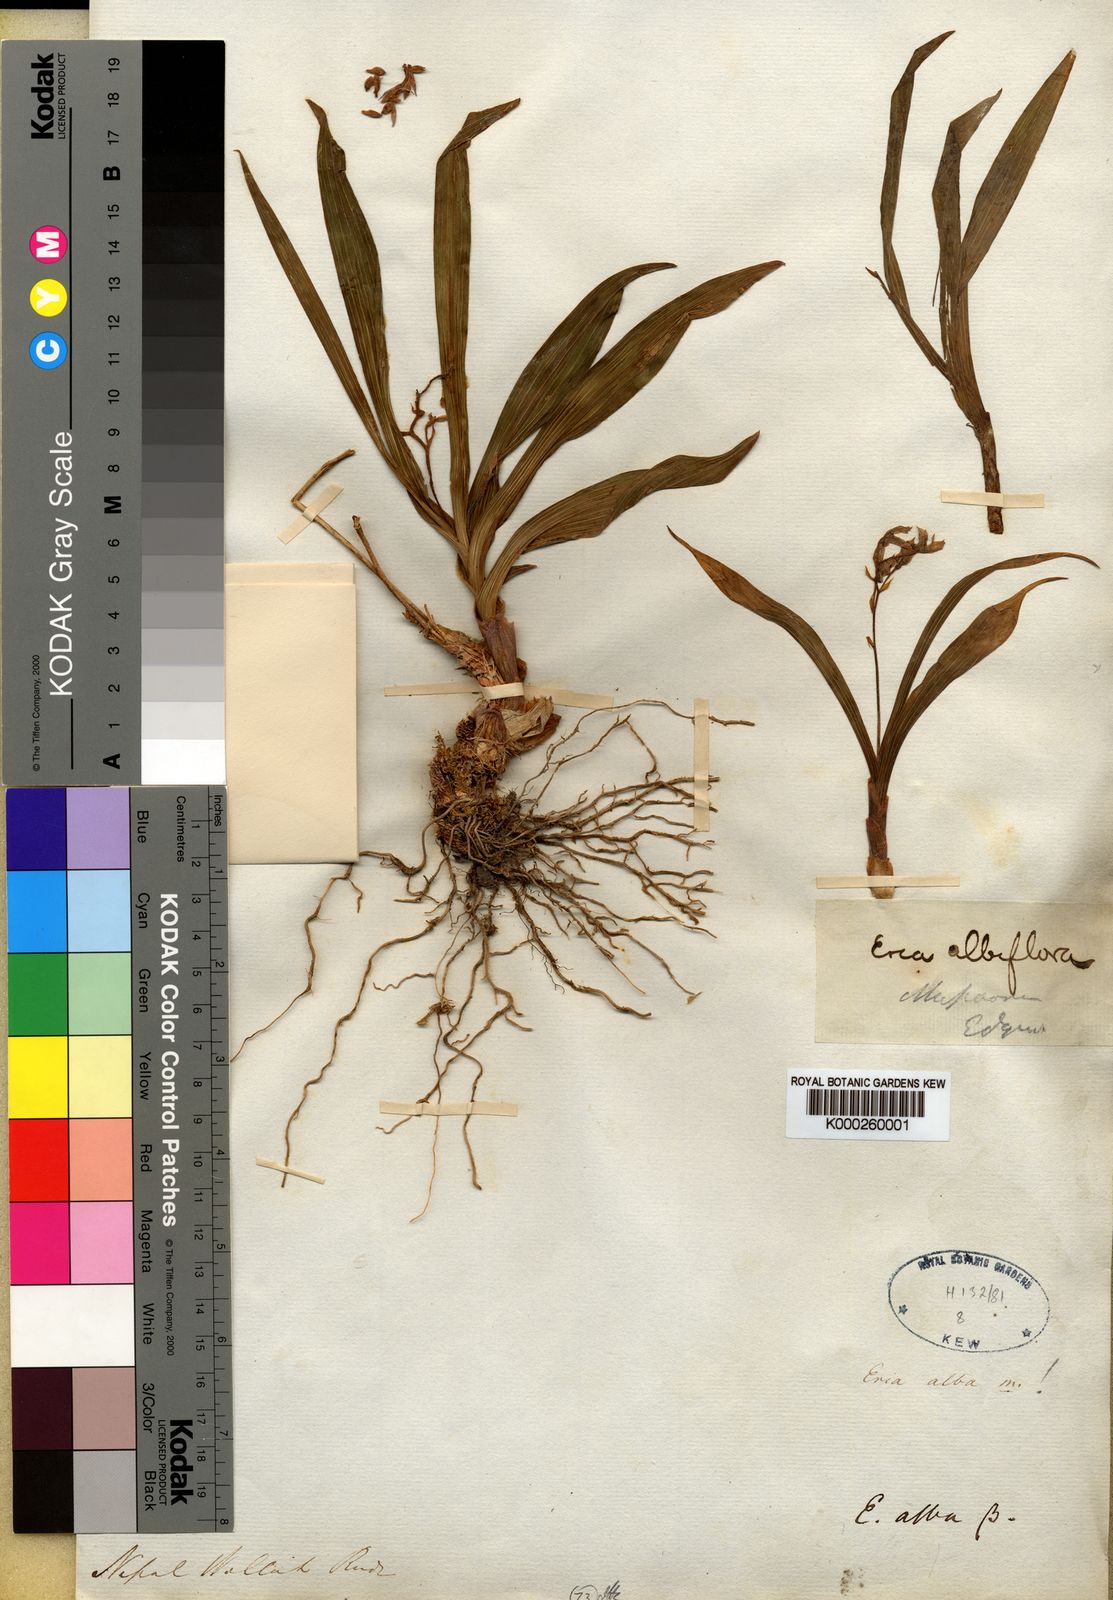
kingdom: Plantae
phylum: Tracheophyta
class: Liliopsida
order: Asparagales
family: Orchidaceae
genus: Pinalia
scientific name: Pinalia leucantha
